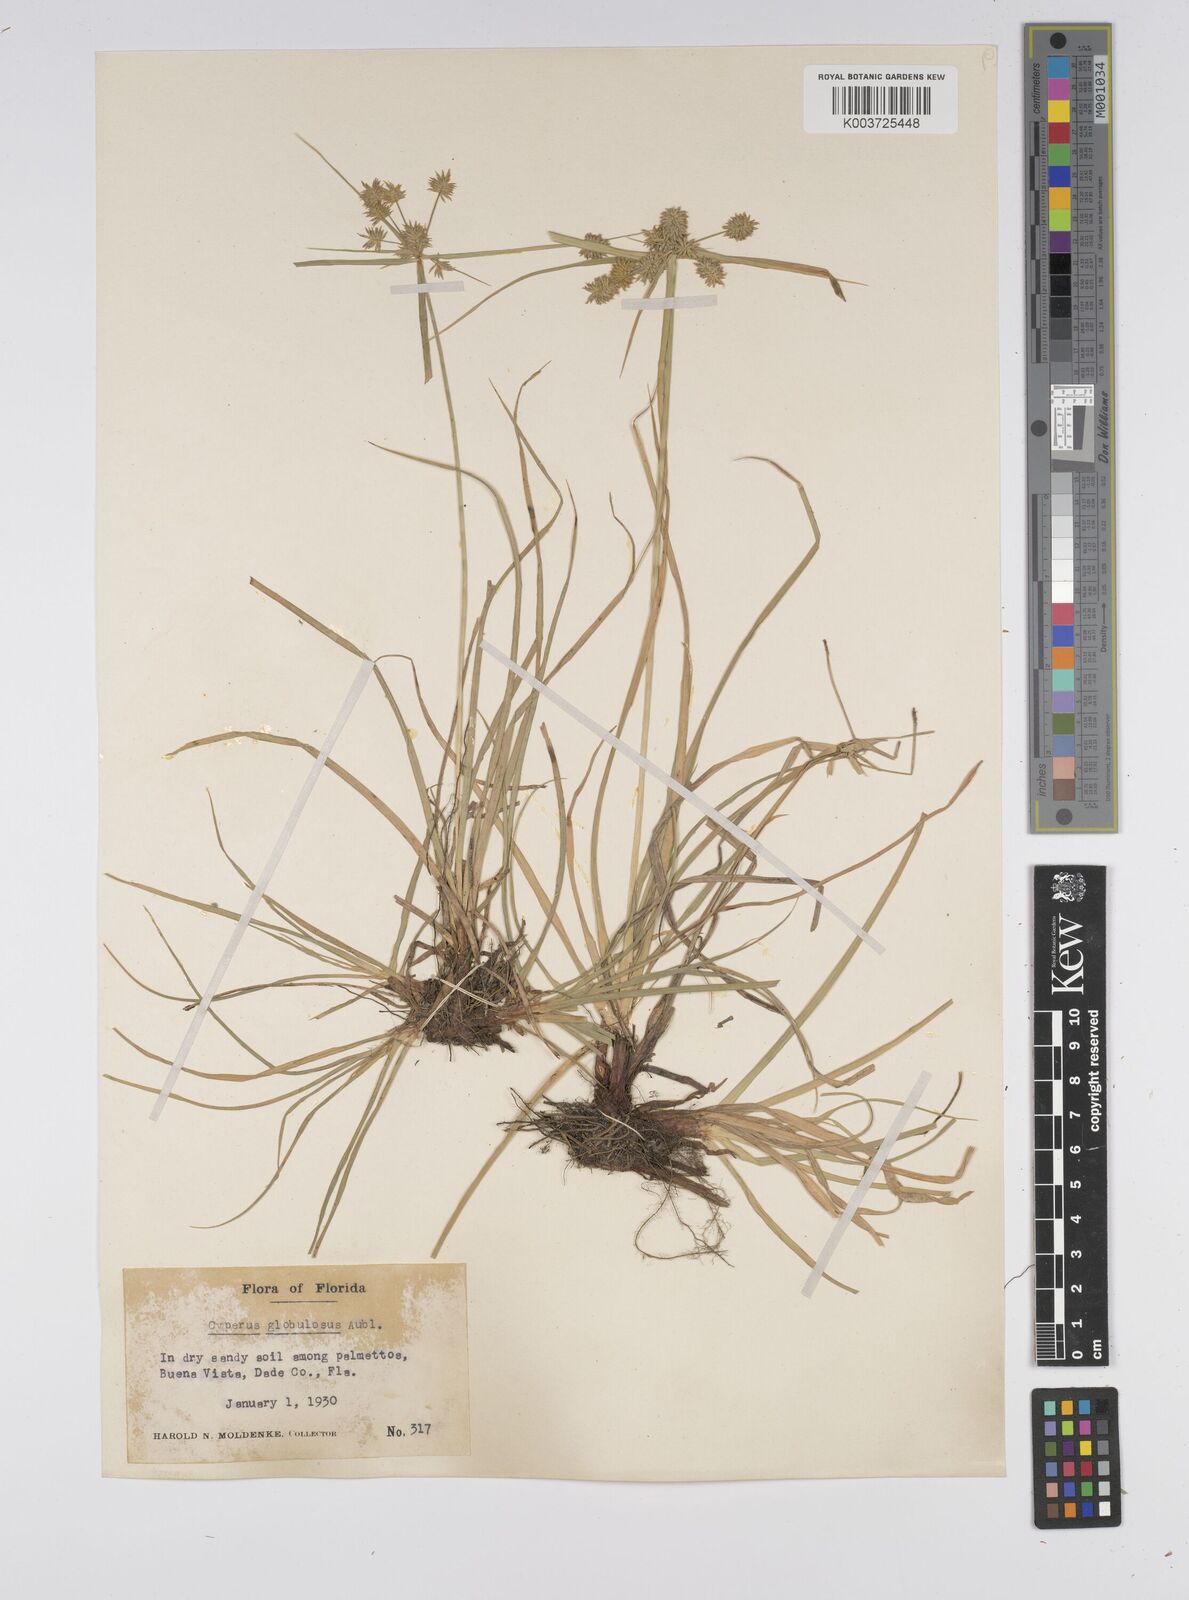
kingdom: Plantae
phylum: Tracheophyta
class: Liliopsida
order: Poales
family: Cyperaceae
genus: Cyperus
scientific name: Cyperus luzulae
